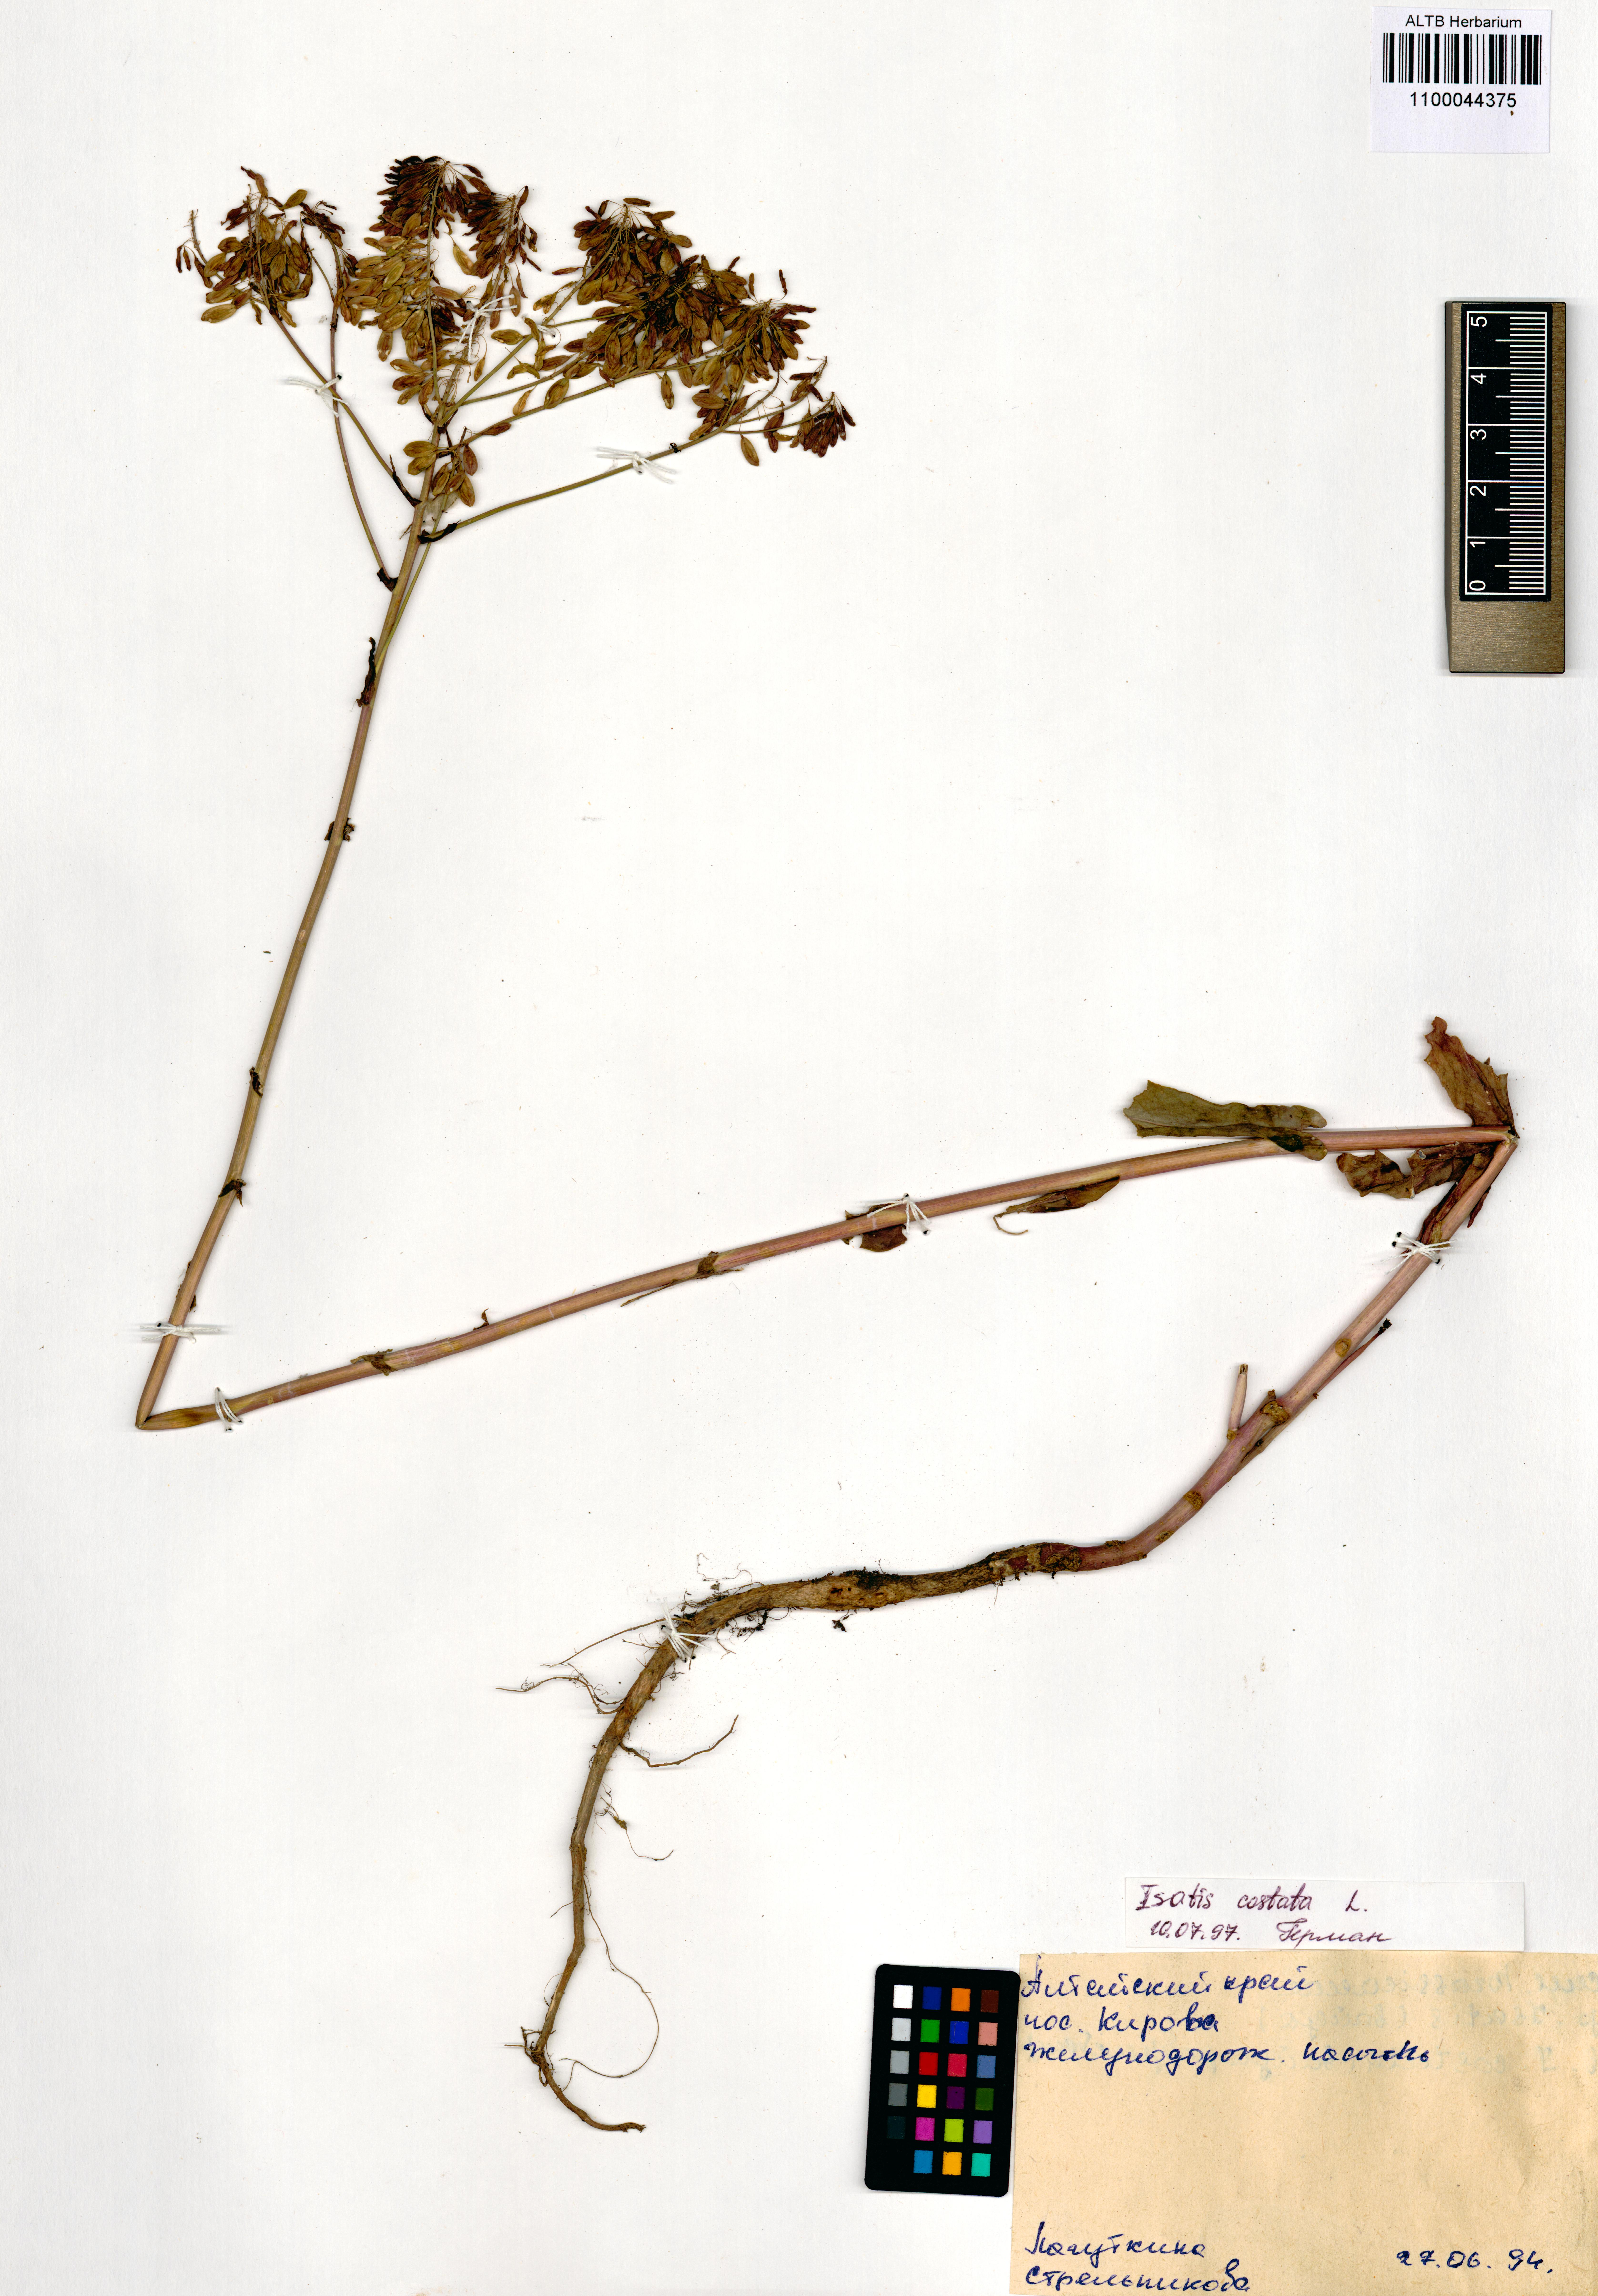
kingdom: Plantae
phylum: Tracheophyta
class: Magnoliopsida
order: Brassicales
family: Brassicaceae
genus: Isatis
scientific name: Isatis costata
